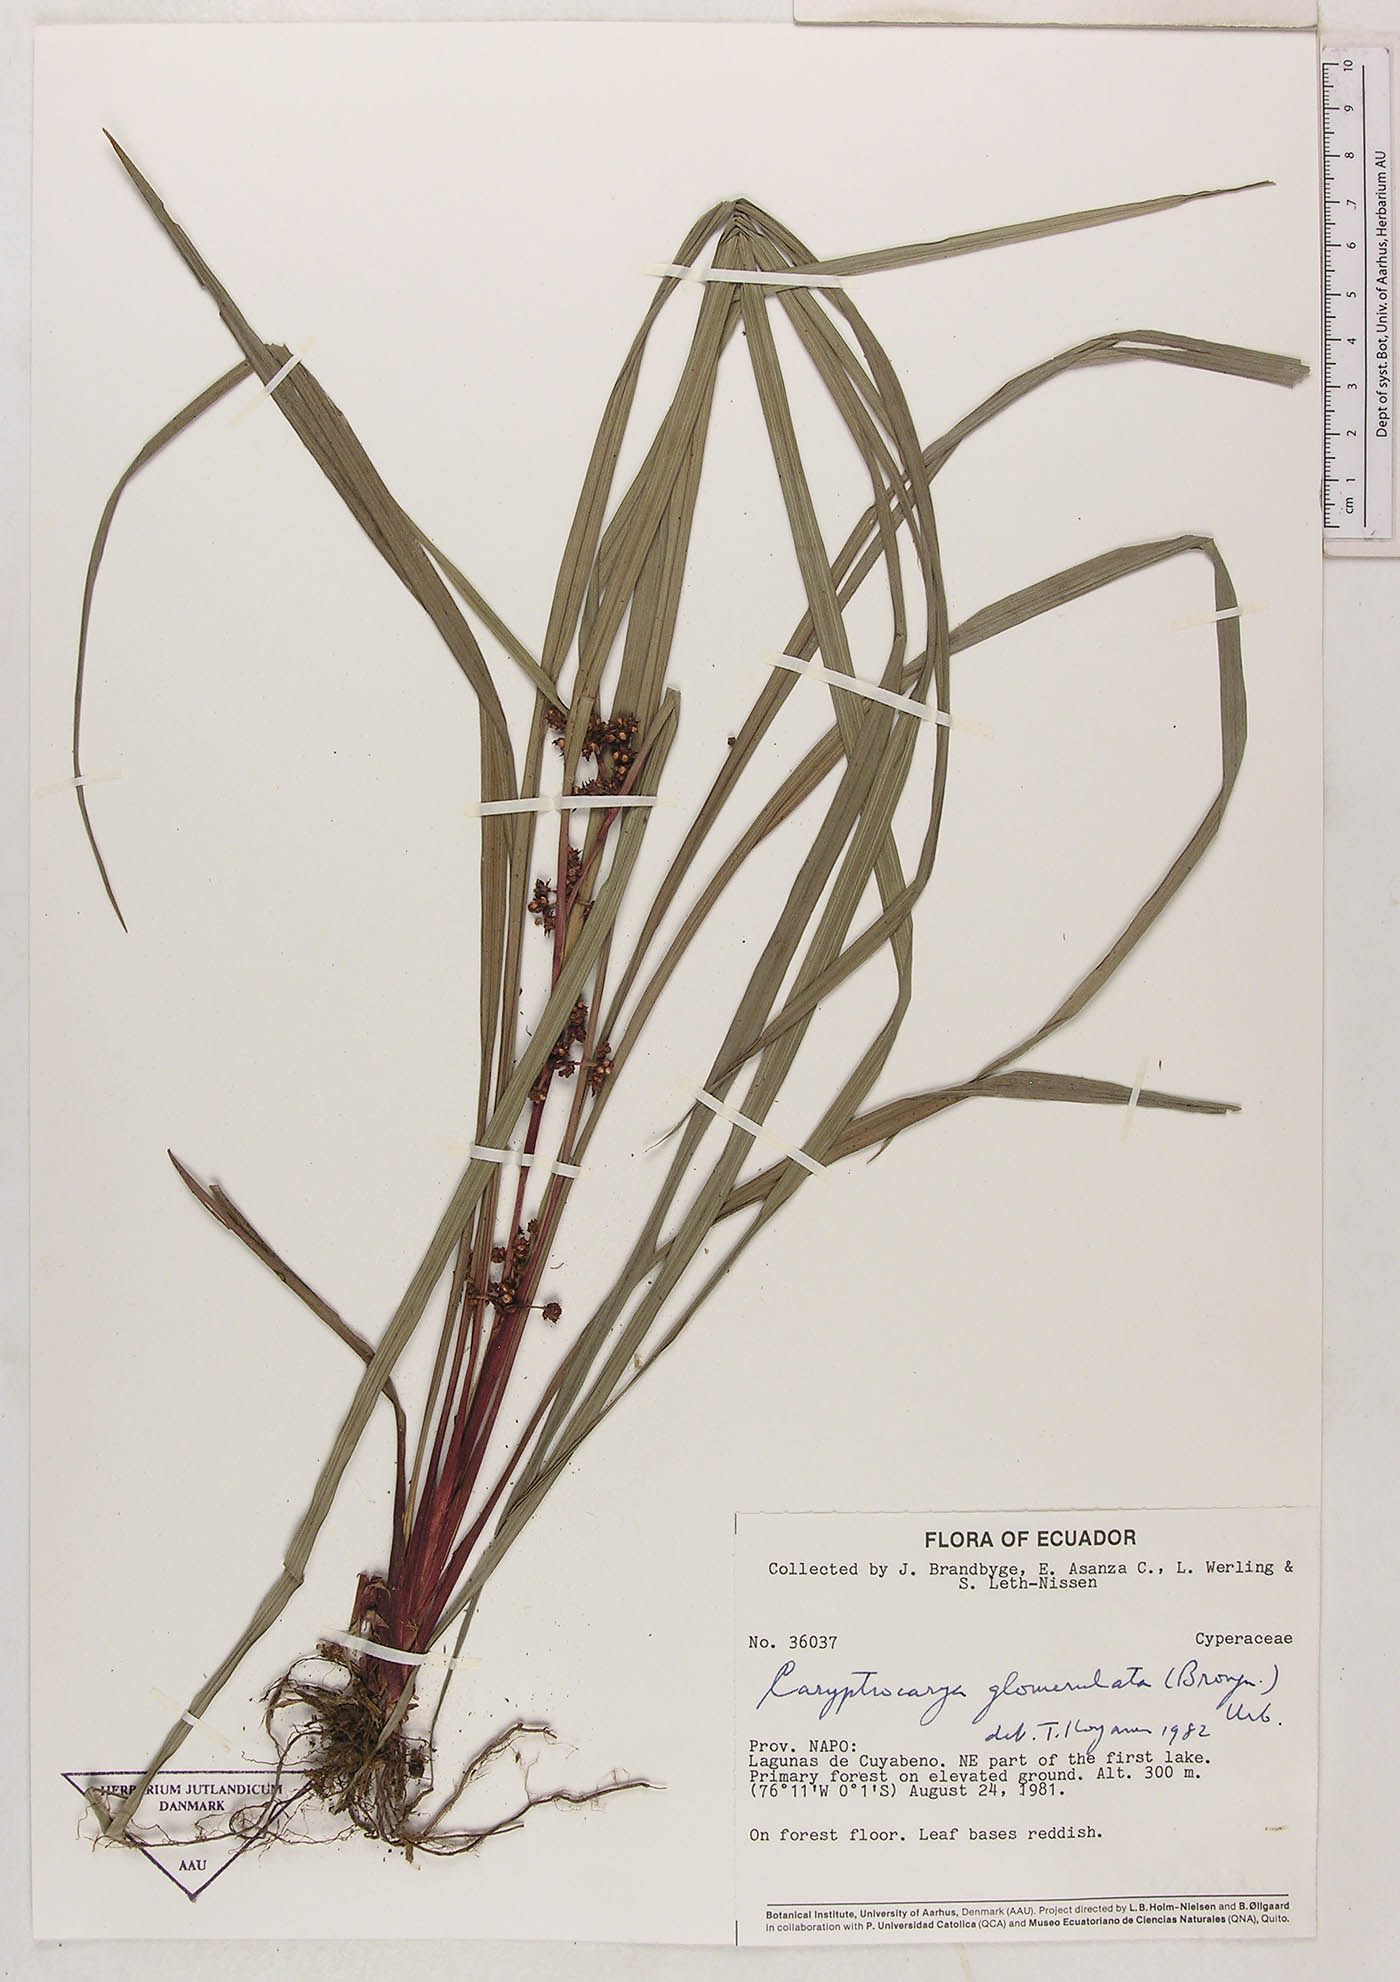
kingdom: Plantae
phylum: Tracheophyta
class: Liliopsida
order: Poales
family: Cyperaceae
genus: Calyptrocarya
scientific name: Calyptrocarya glomerulata
